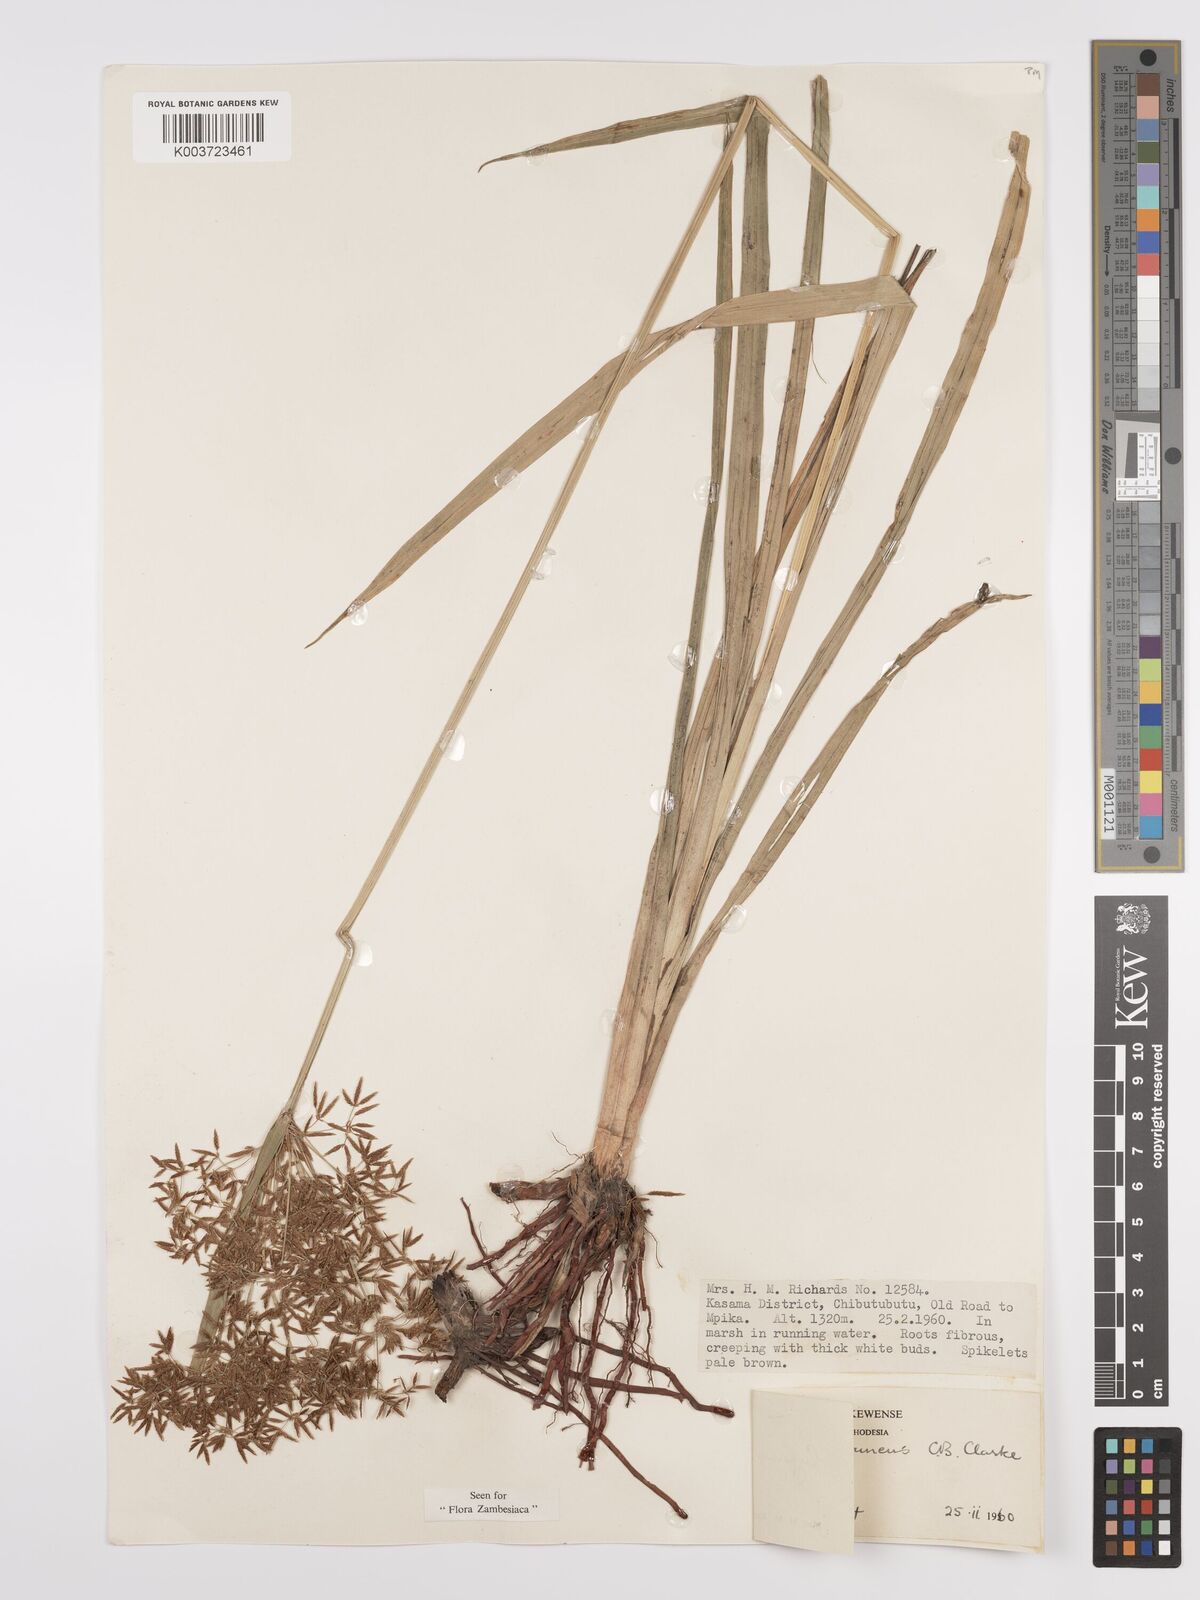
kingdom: Plantae
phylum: Tracheophyta
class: Liliopsida
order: Poales
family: Cyperaceae
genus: Cyperus
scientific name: Cyperus aureobrunneus
